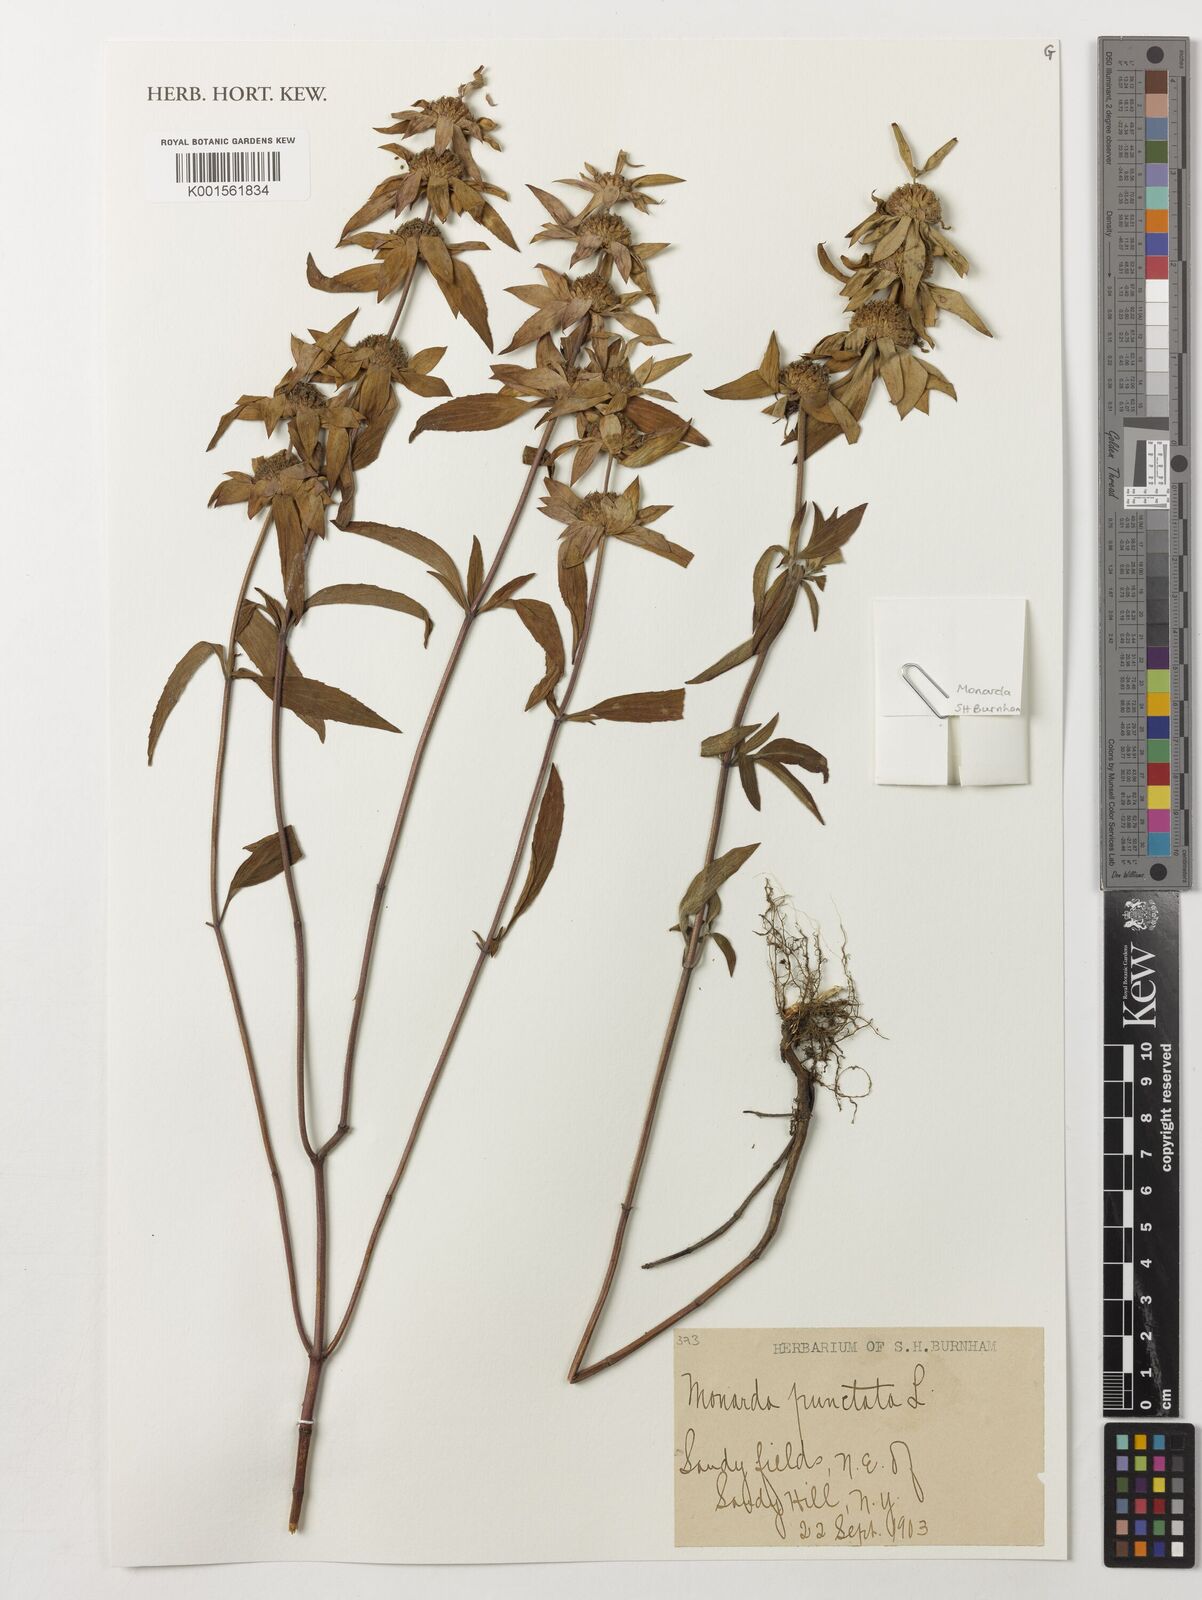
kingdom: Plantae
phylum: Tracheophyta
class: Magnoliopsida
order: Lamiales
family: Lamiaceae
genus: Monarda
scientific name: Monarda punctata
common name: Dotted monarda
